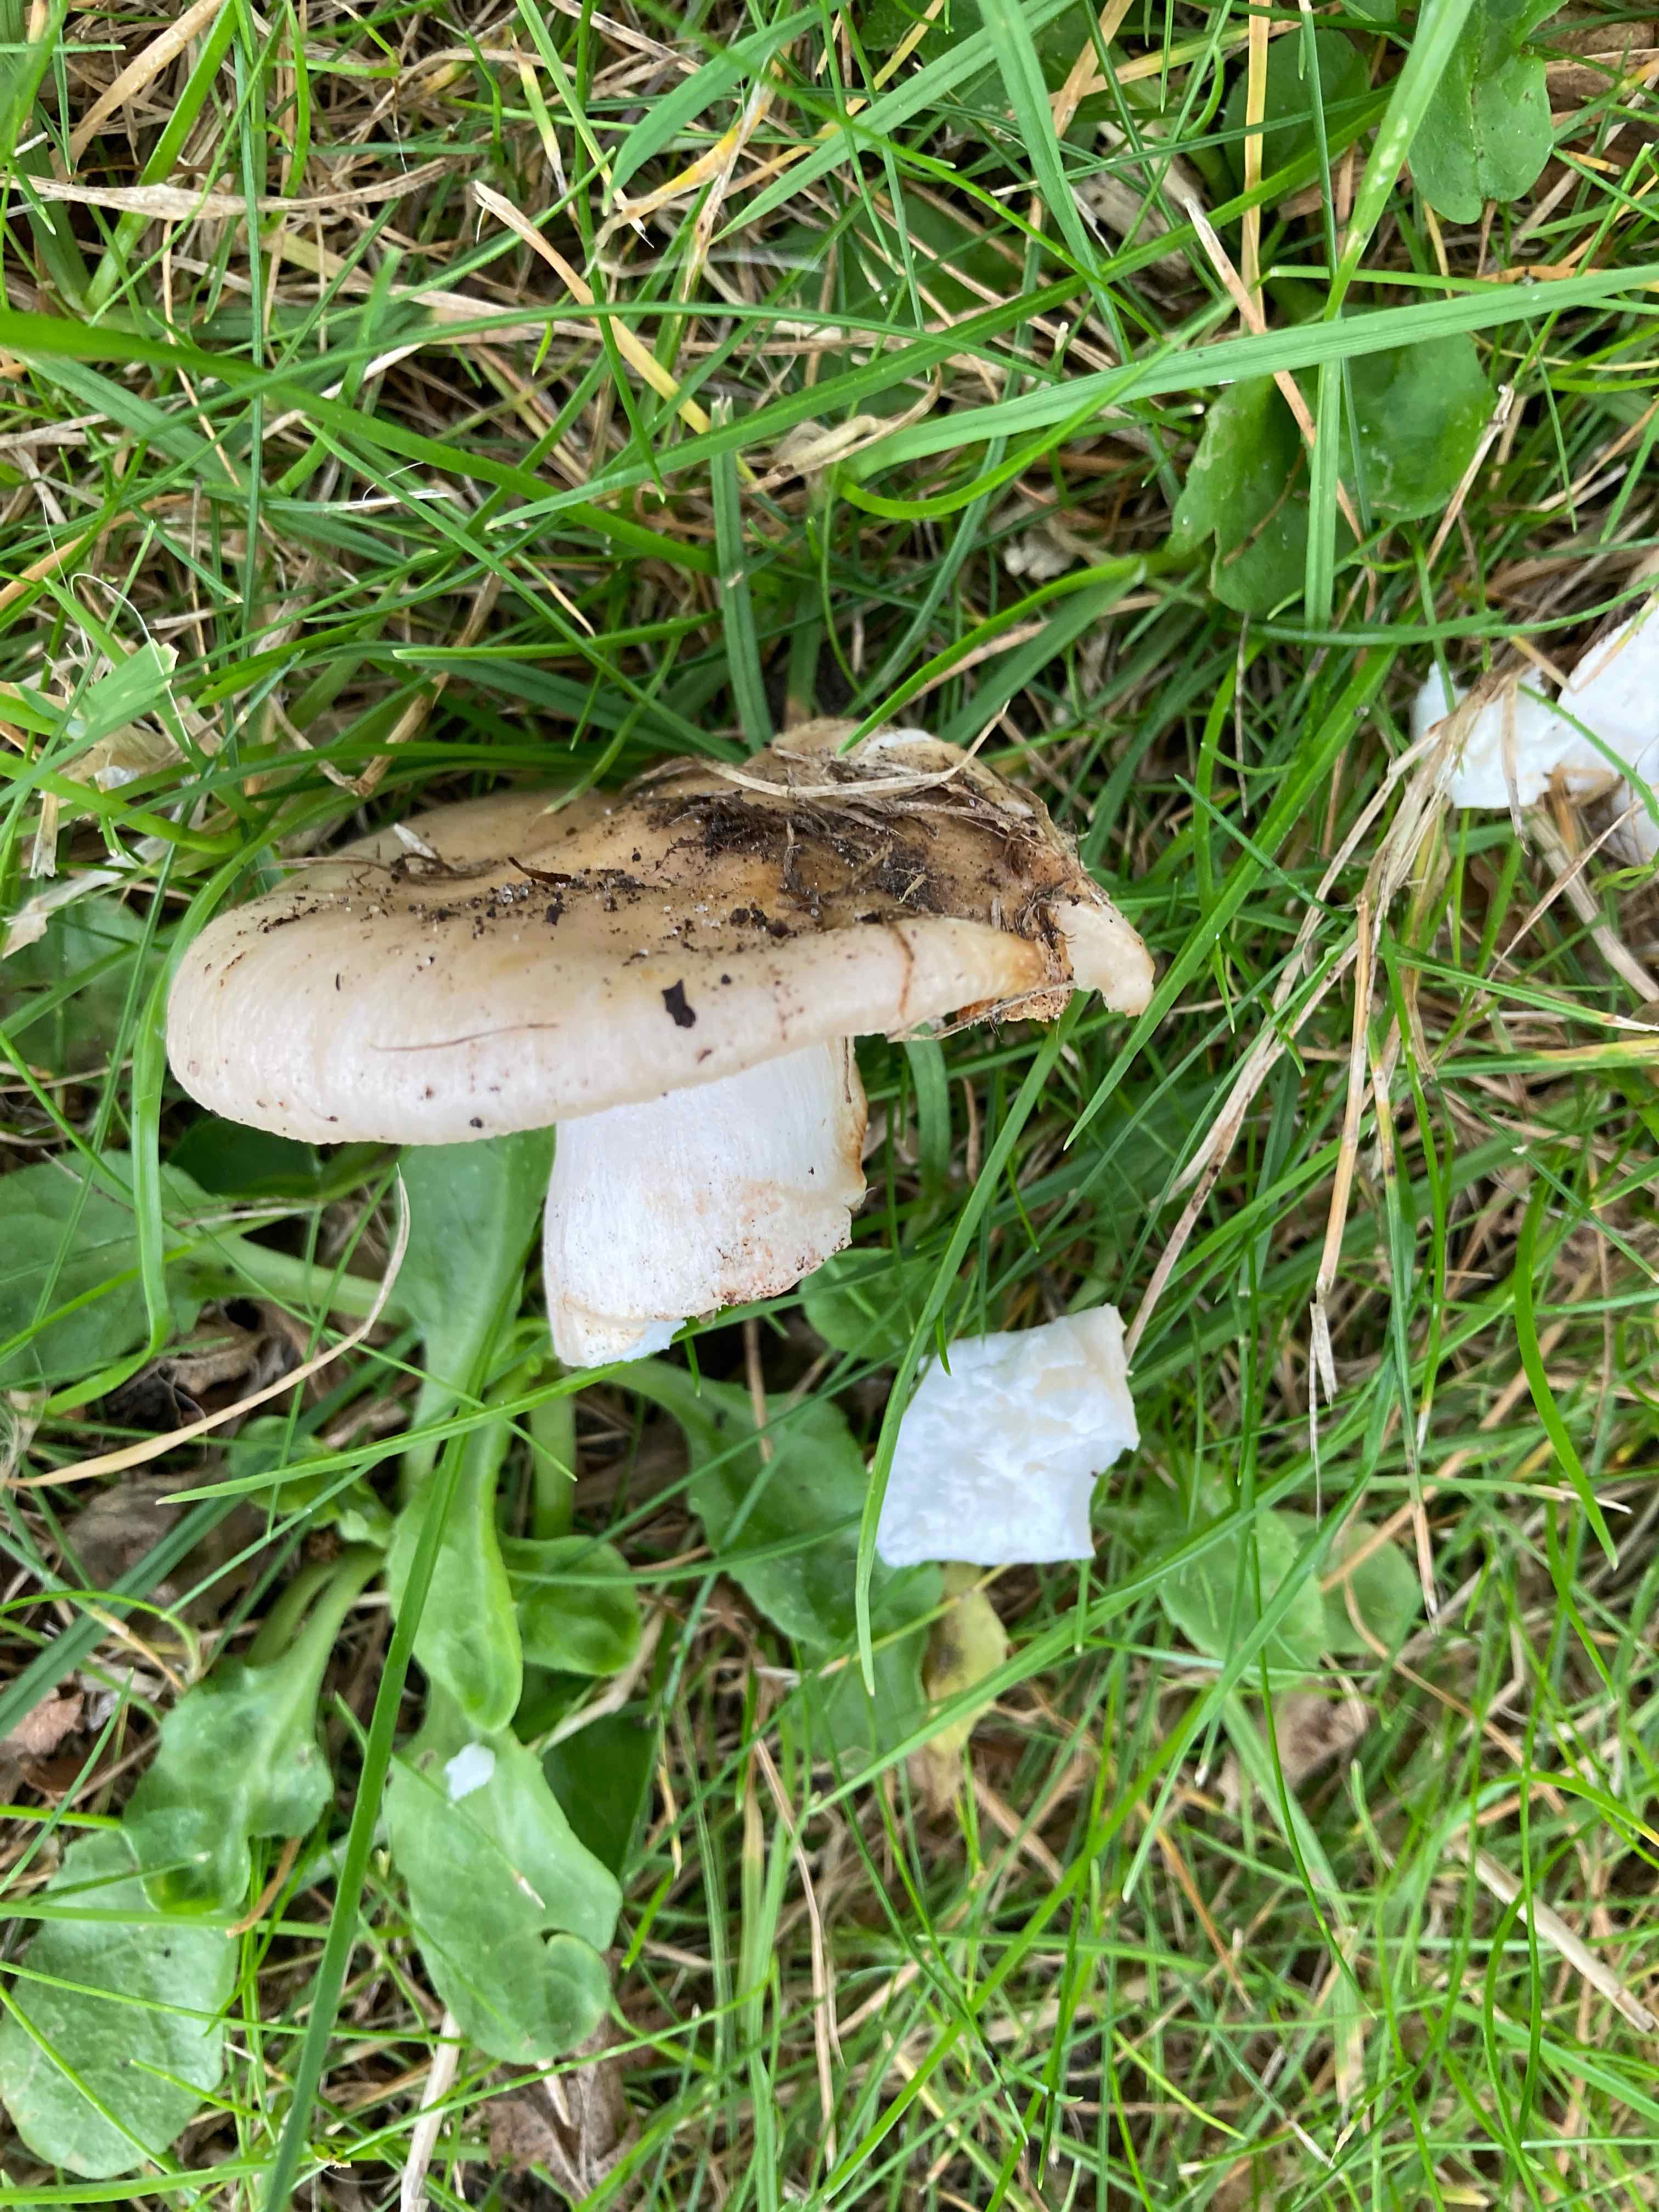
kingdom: Fungi
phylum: Basidiomycota
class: Agaricomycetes
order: Russulales
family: Russulaceae
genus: Russula
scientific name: Russula recondita
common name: mild kam-skørhat
